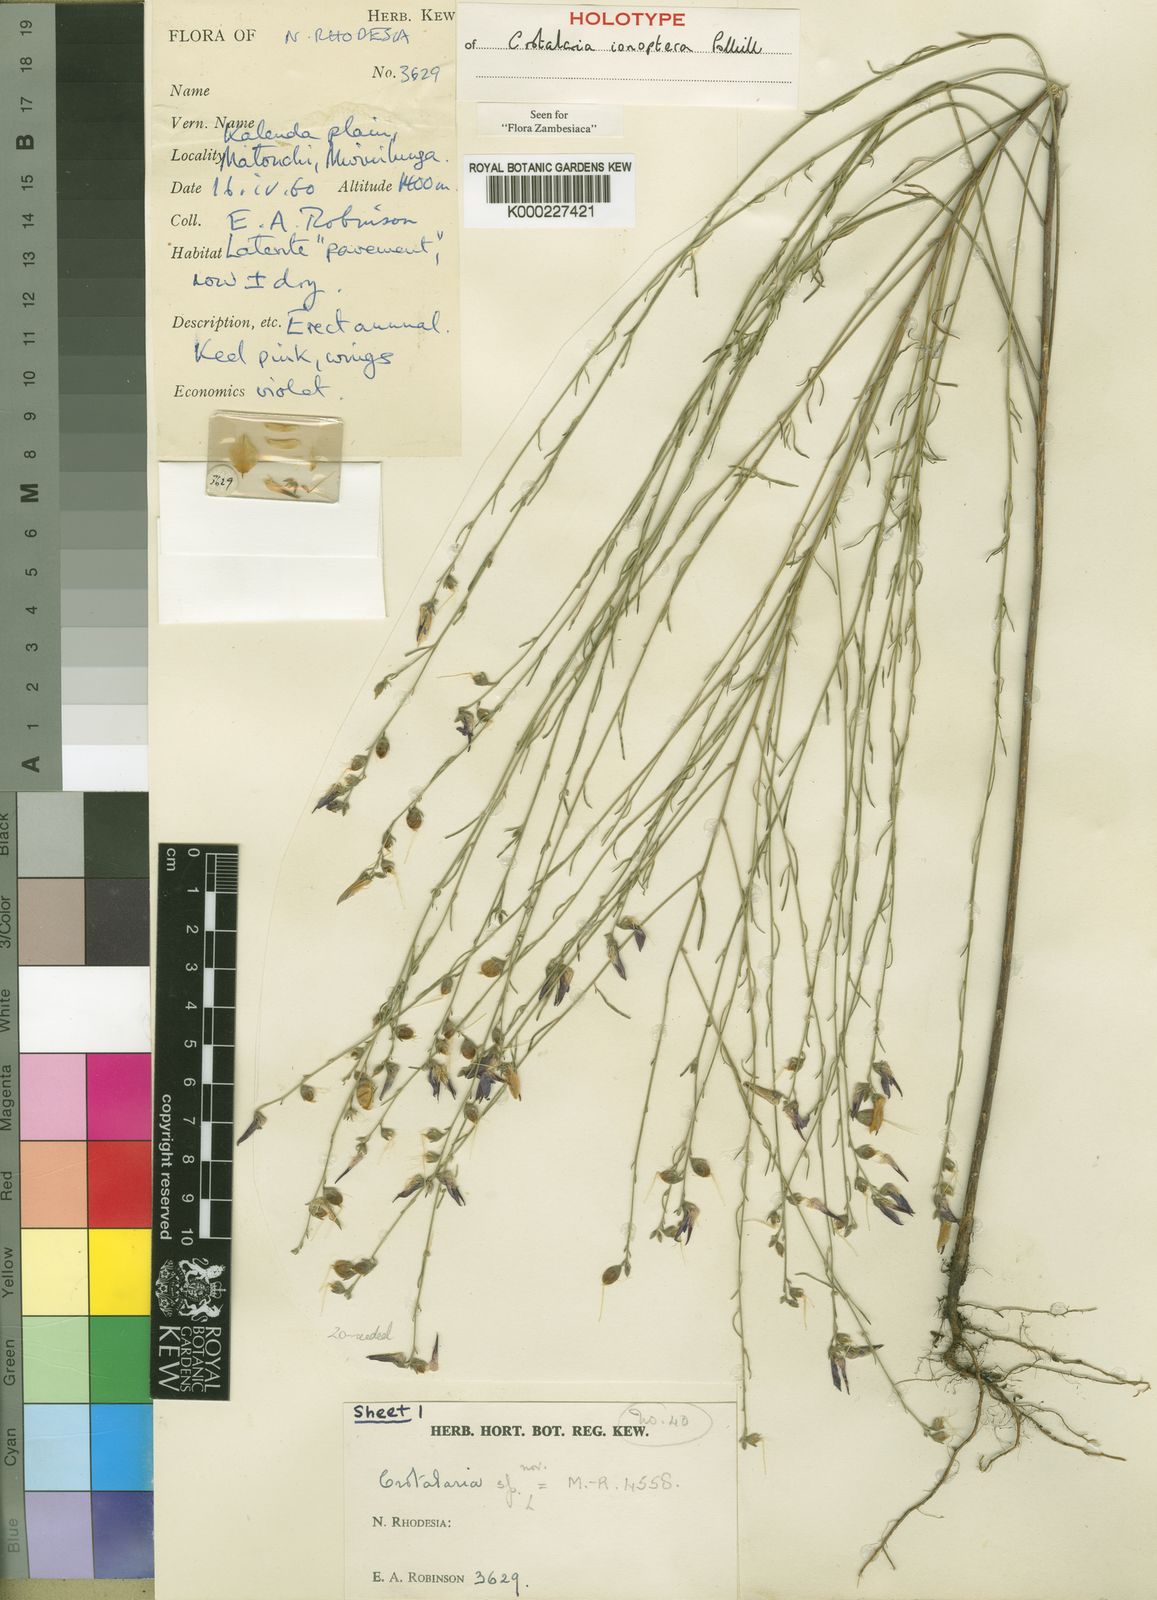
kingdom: Plantae
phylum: Tracheophyta
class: Magnoliopsida
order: Fabales
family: Fabaceae
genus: Crotalaria
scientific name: Crotalaria ionoptera
